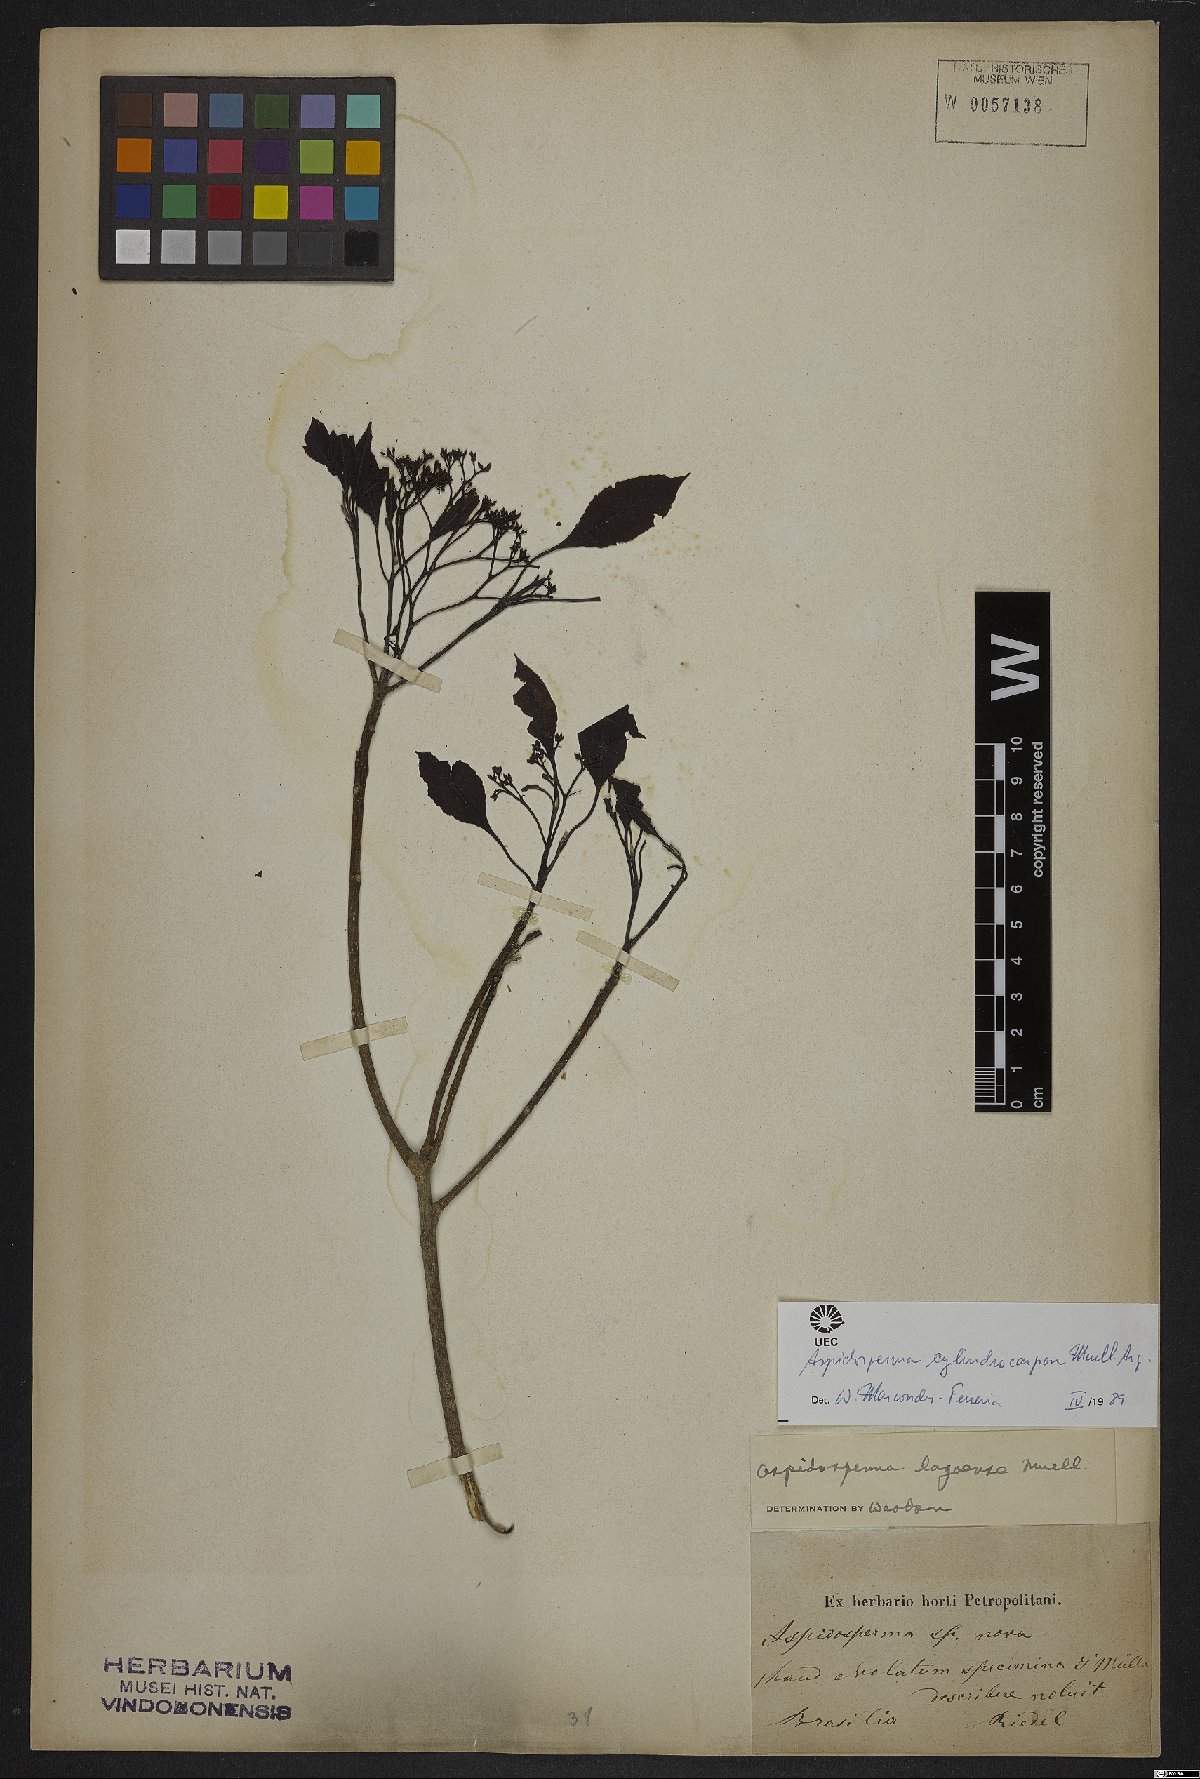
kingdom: Plantae
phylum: Tracheophyta
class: Magnoliopsida
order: Gentianales
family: Apocynaceae
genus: Aspidosperma
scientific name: Aspidosperma cylindrocarpon
